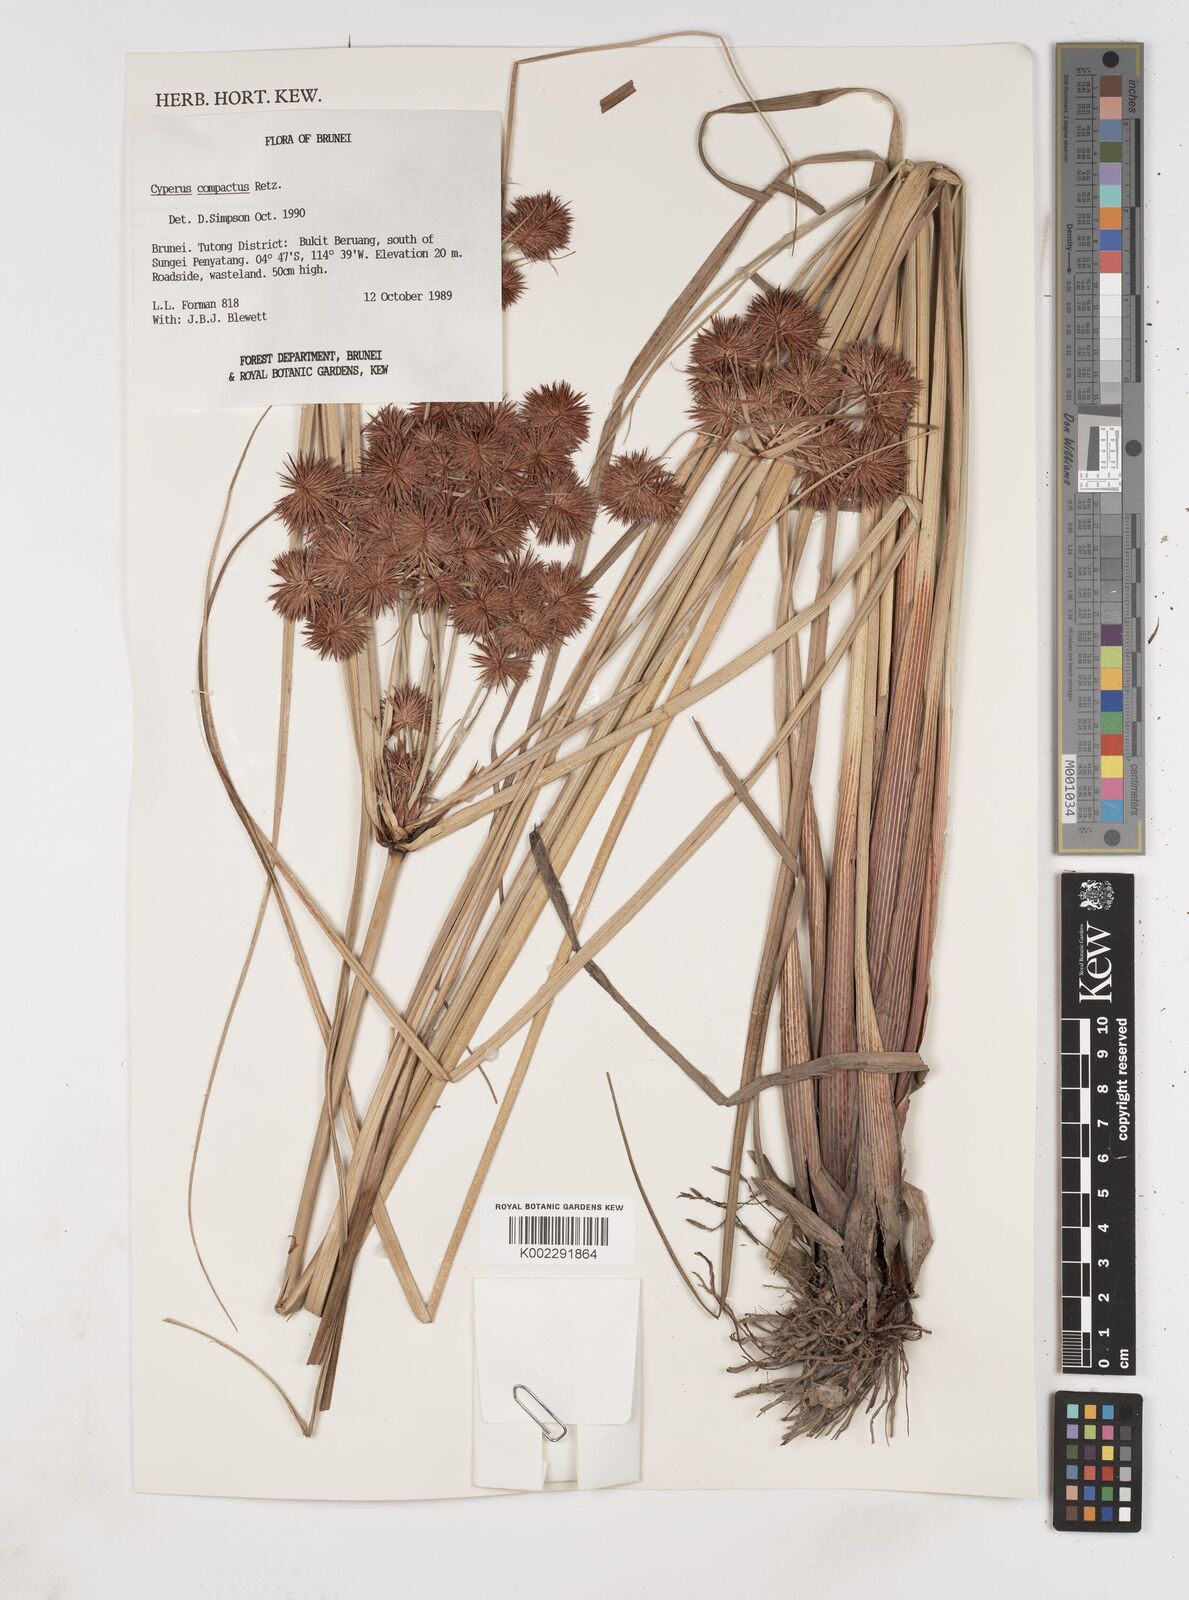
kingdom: Plantae
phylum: Tracheophyta
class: Liliopsida
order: Poales
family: Cyperaceae
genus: Cyperus
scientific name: Cyperus compactus
